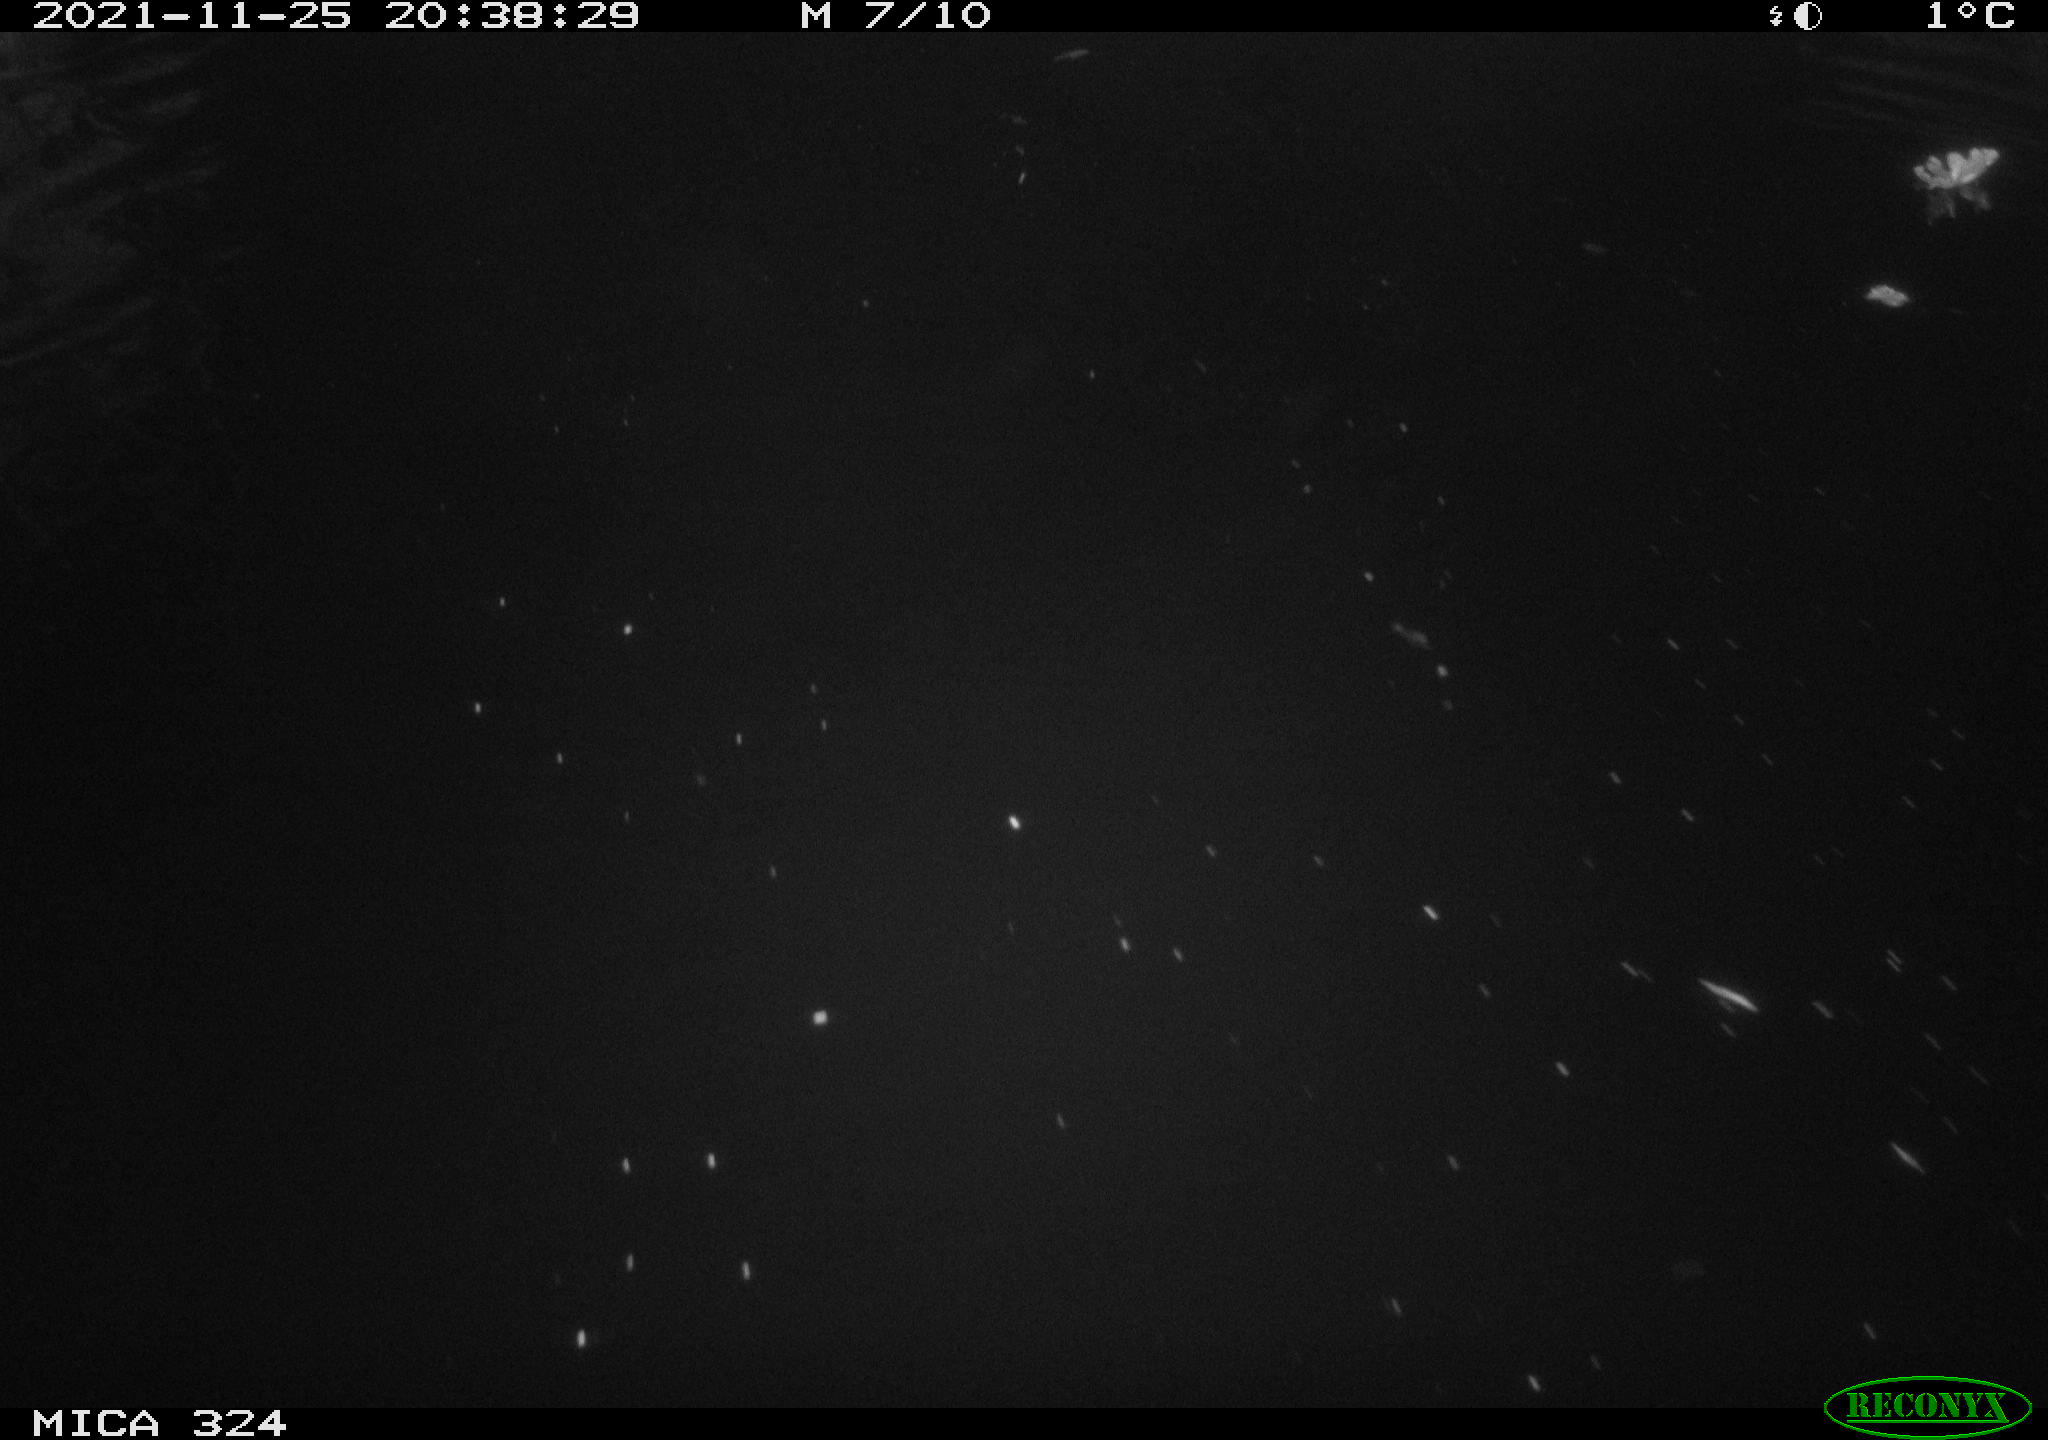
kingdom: Animalia
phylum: Chordata
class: Mammalia
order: Rodentia
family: Cricetidae
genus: Ondatra
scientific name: Ondatra zibethicus
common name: Muskrat
